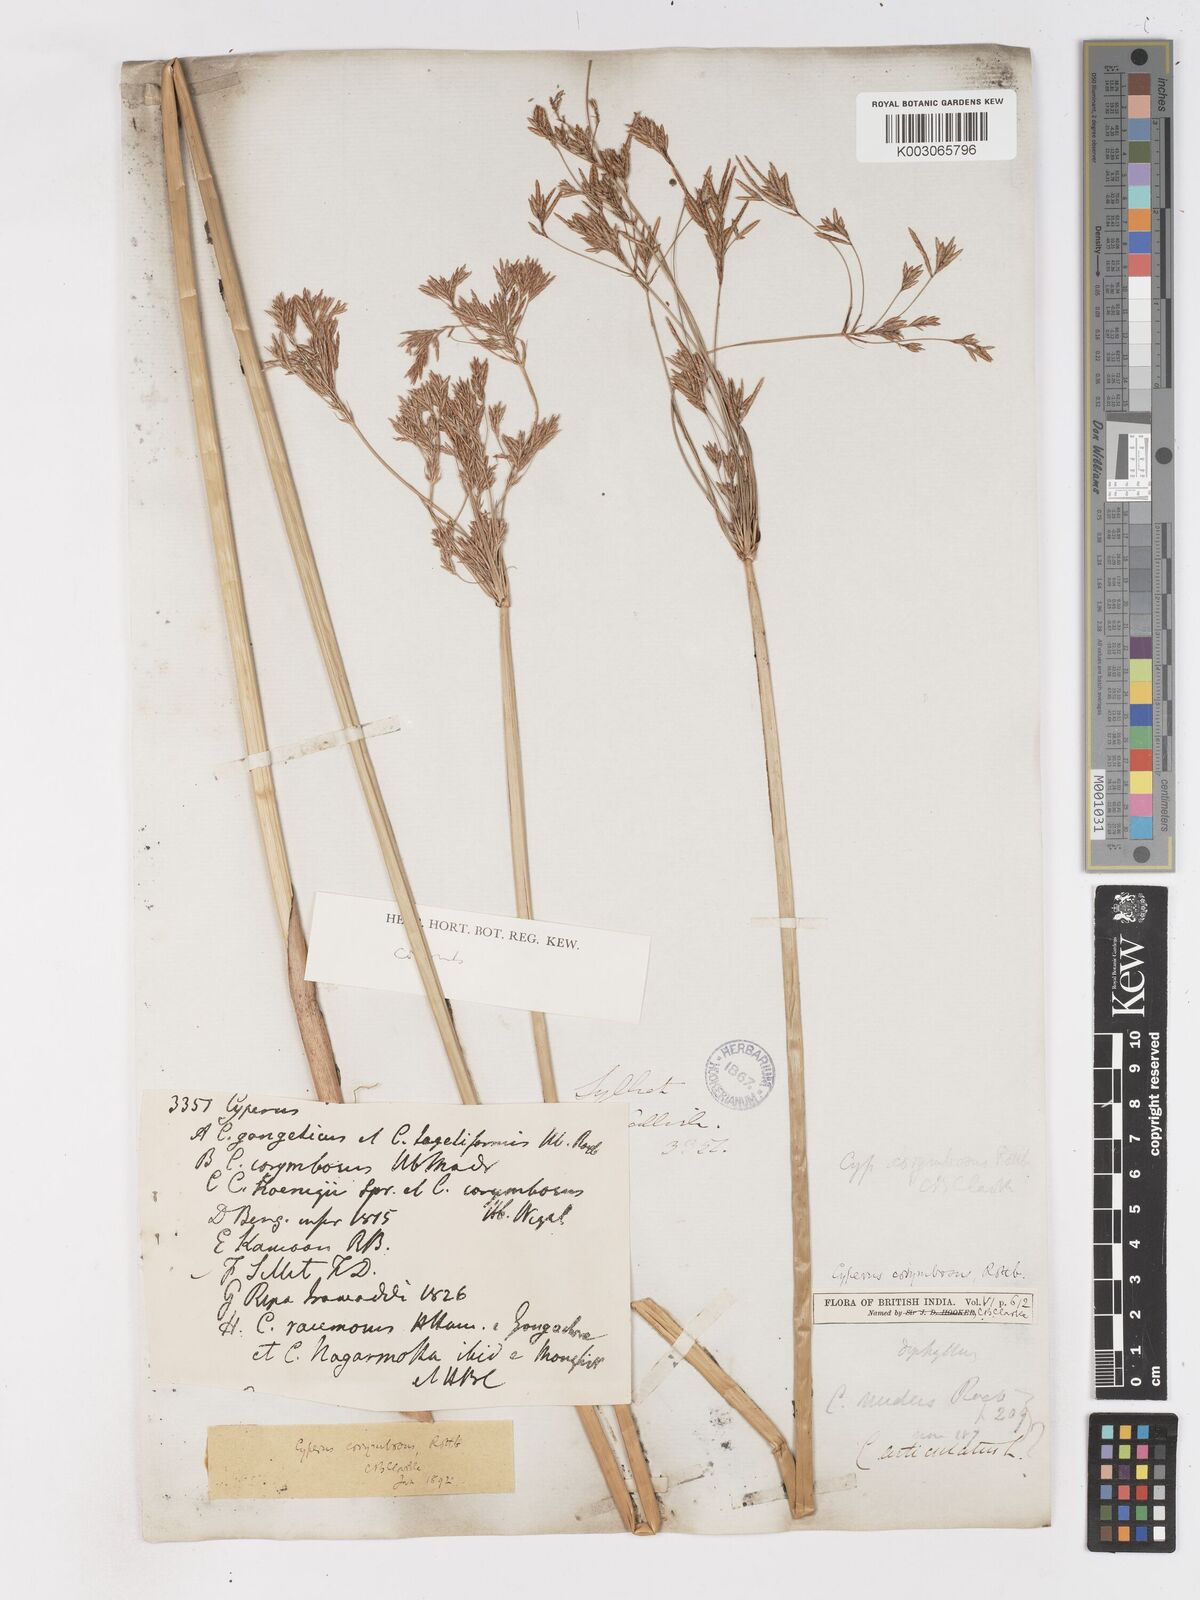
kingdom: Plantae
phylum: Tracheophyta
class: Liliopsida
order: Poales
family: Cyperaceae
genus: Cyperus
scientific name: Cyperus corymbosus
